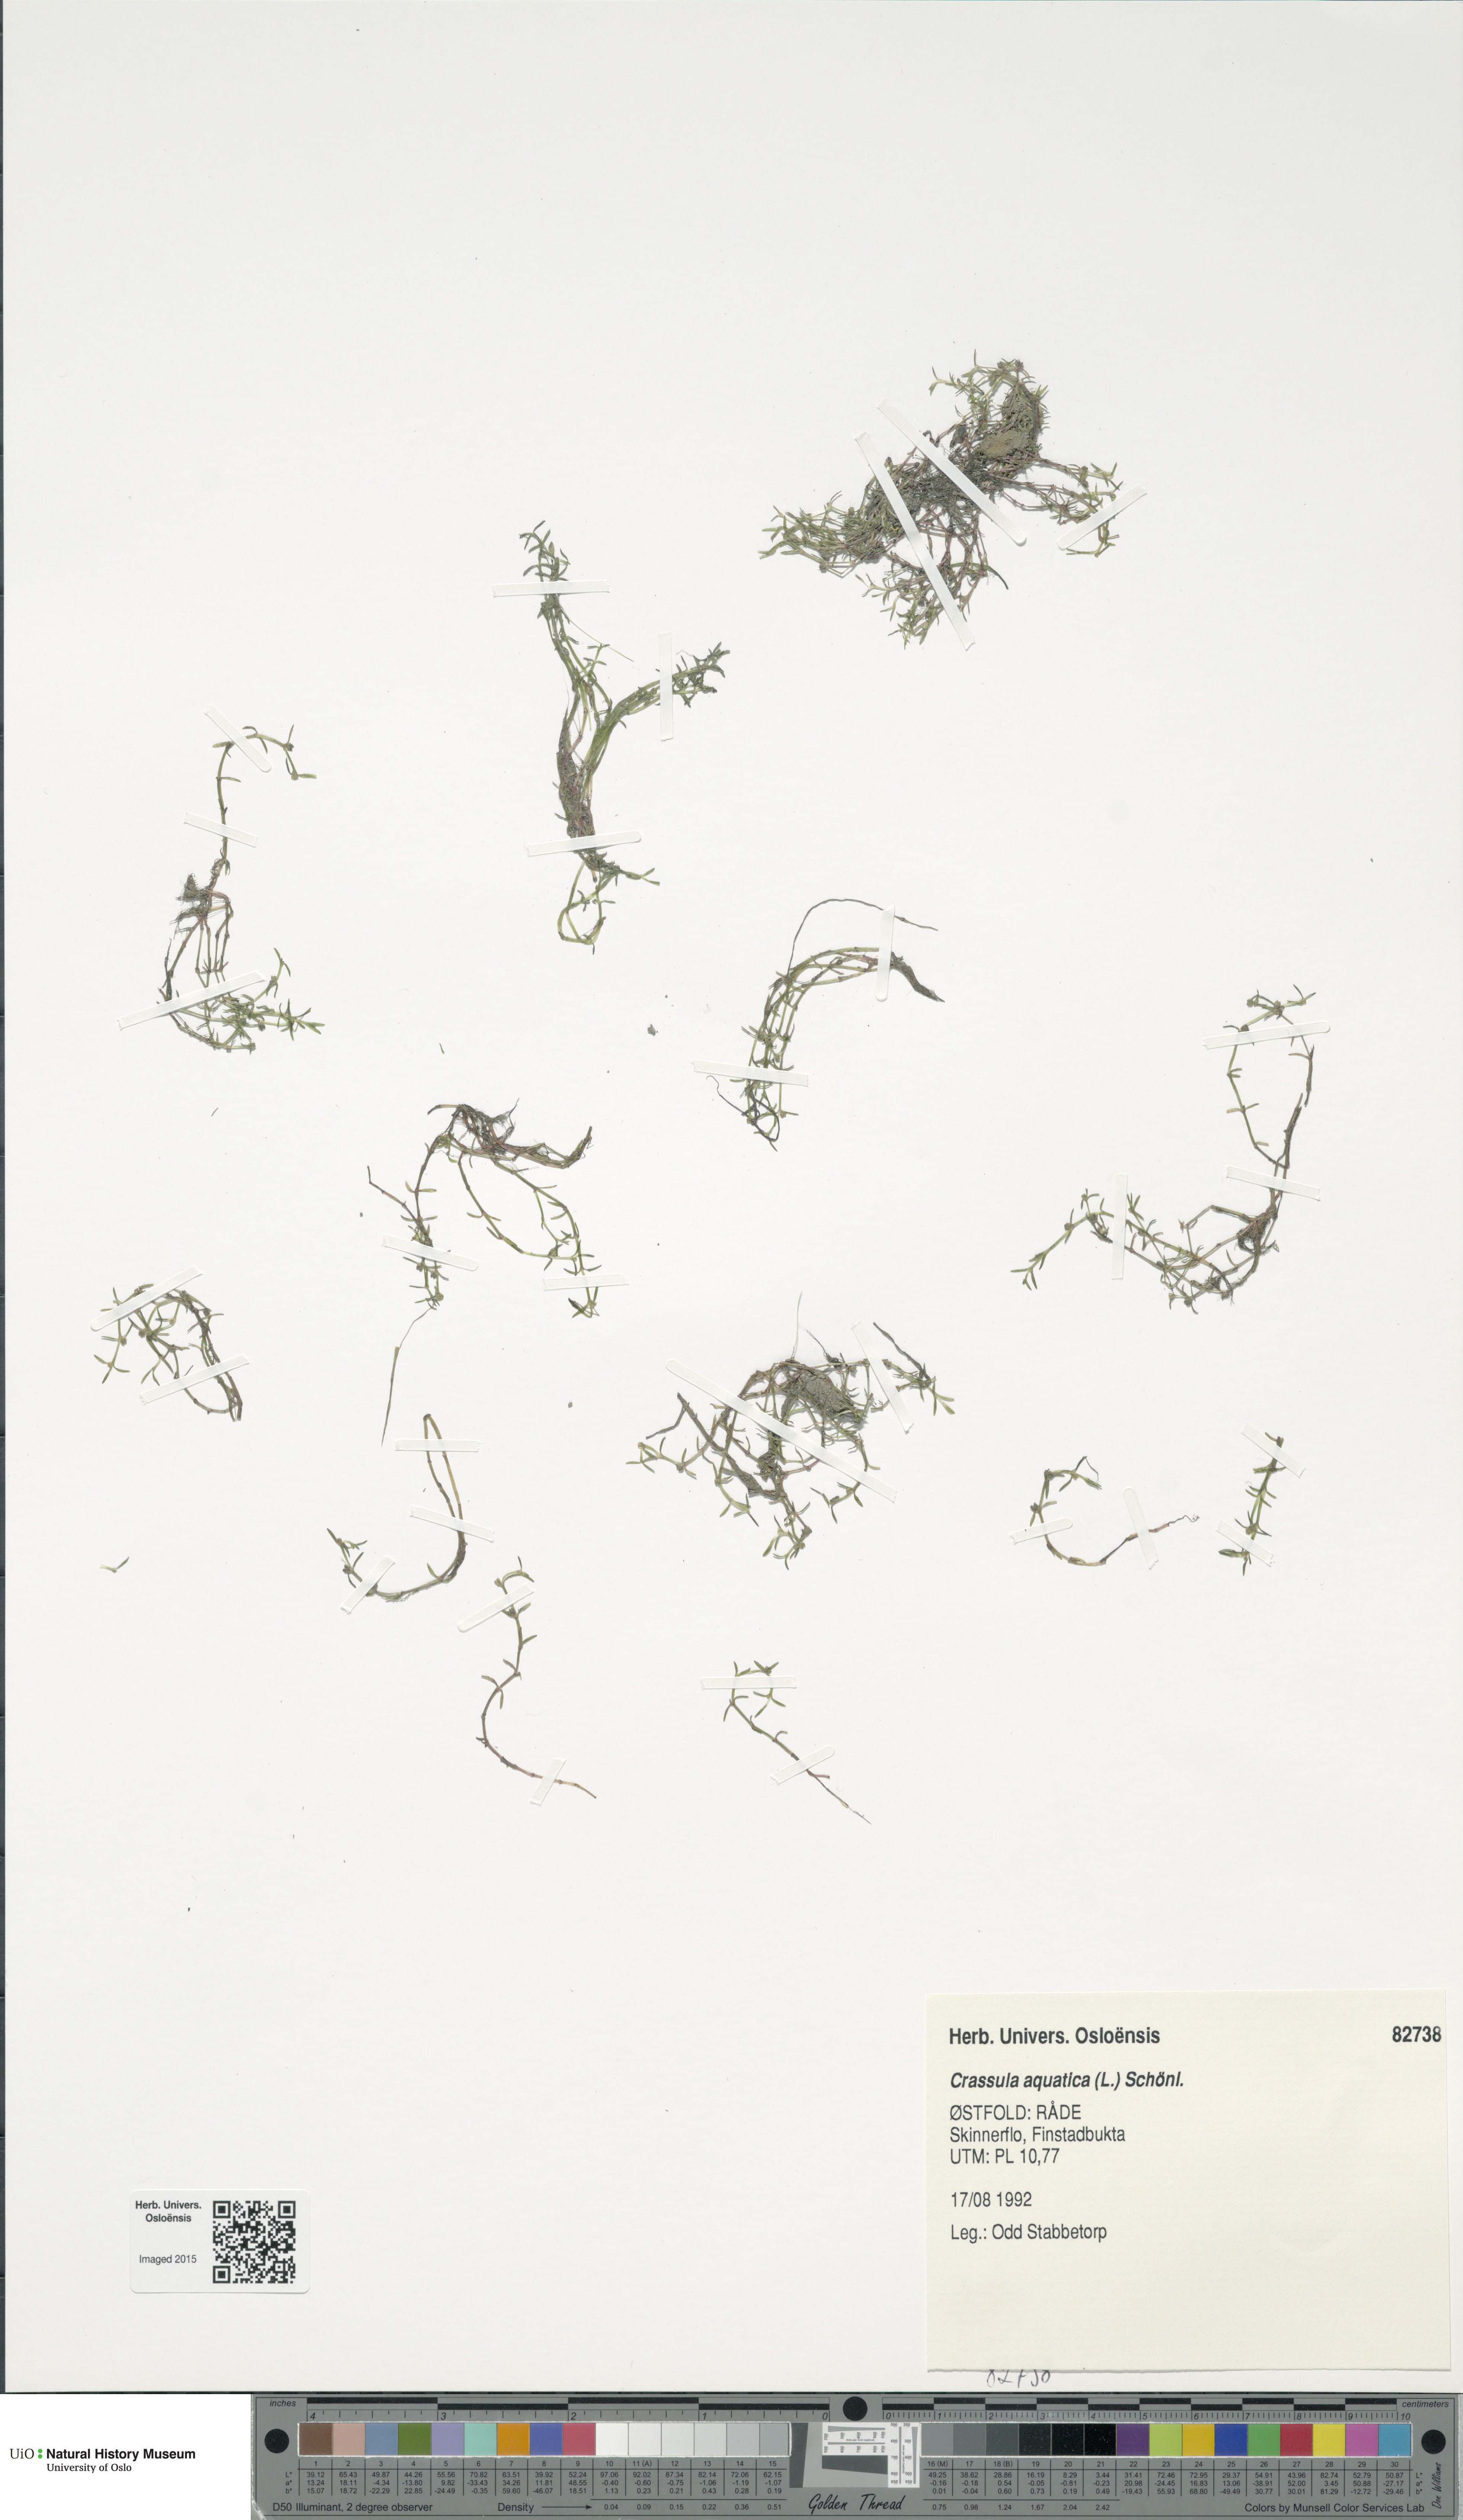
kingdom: Plantae
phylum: Tracheophyta
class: Magnoliopsida
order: Saxifragales
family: Crassulaceae
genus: Crassula
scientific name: Crassula aquatica
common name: Pigmyweed
